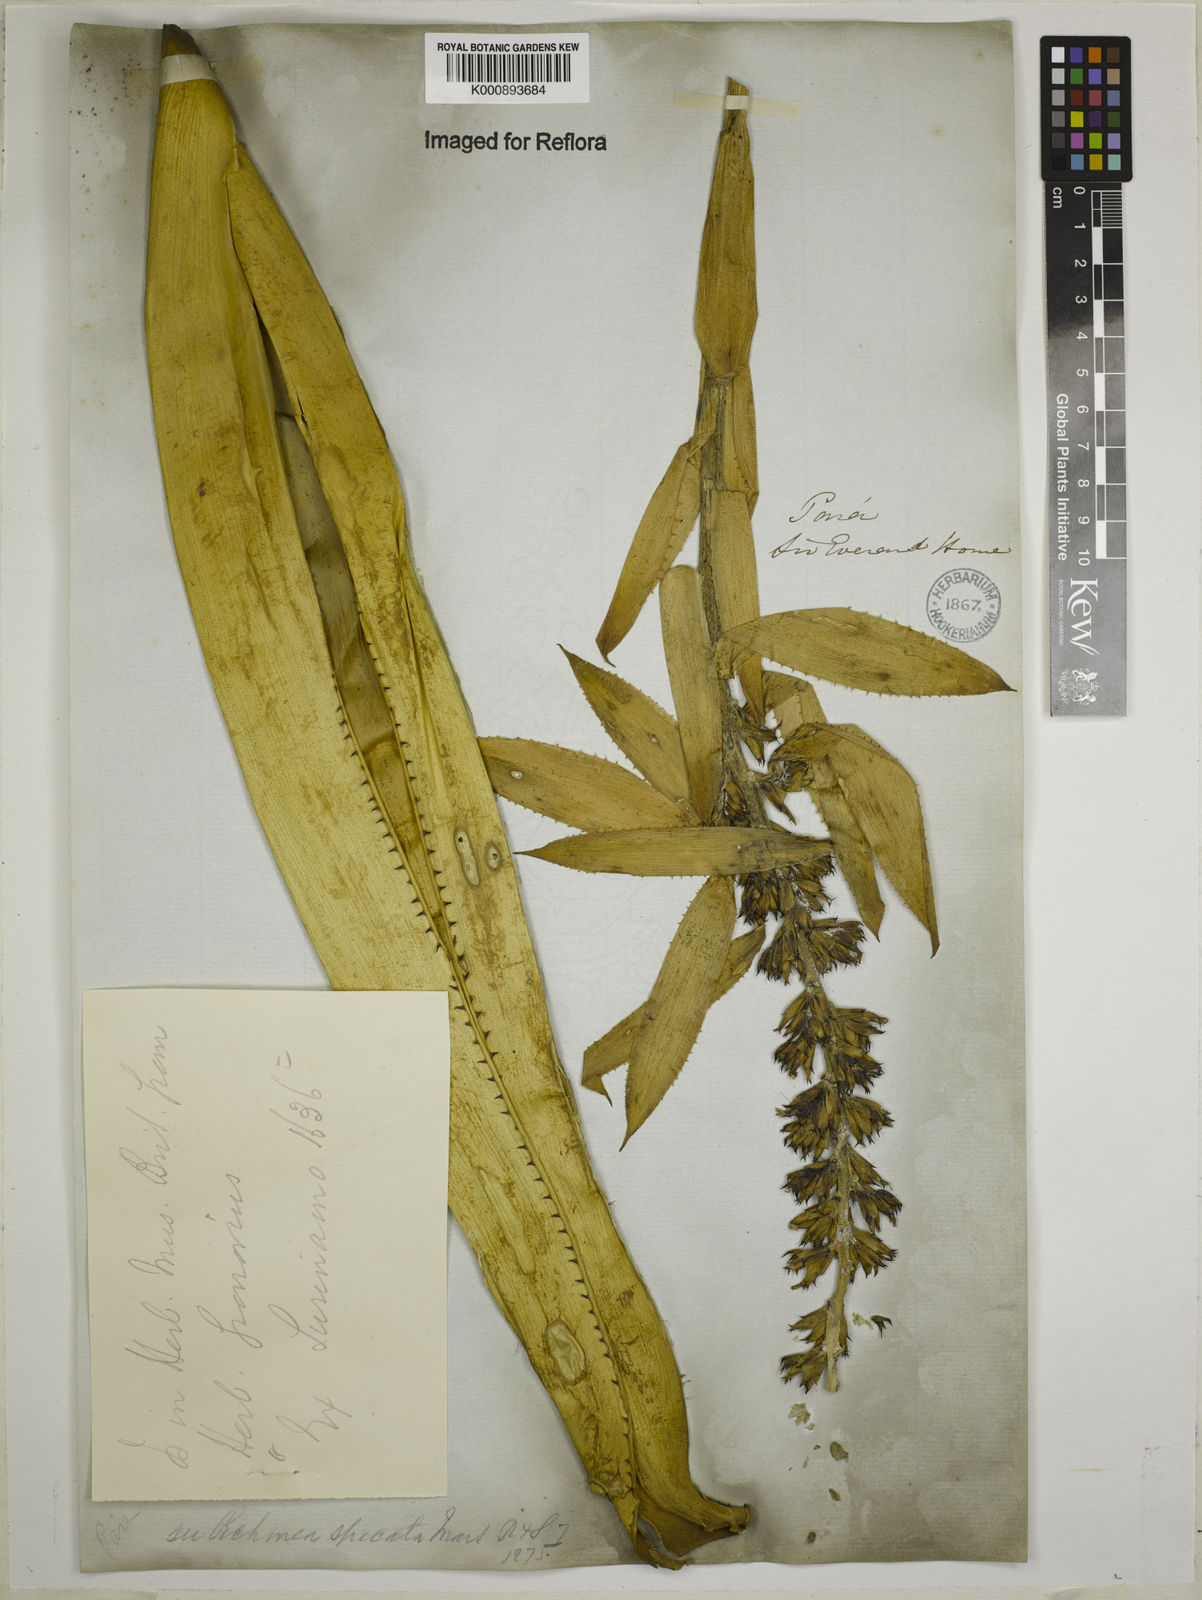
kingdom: Plantae
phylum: Tracheophyta
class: Liliopsida
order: Poales
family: Bromeliaceae
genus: Aechmea
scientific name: Aechmea mertensii
